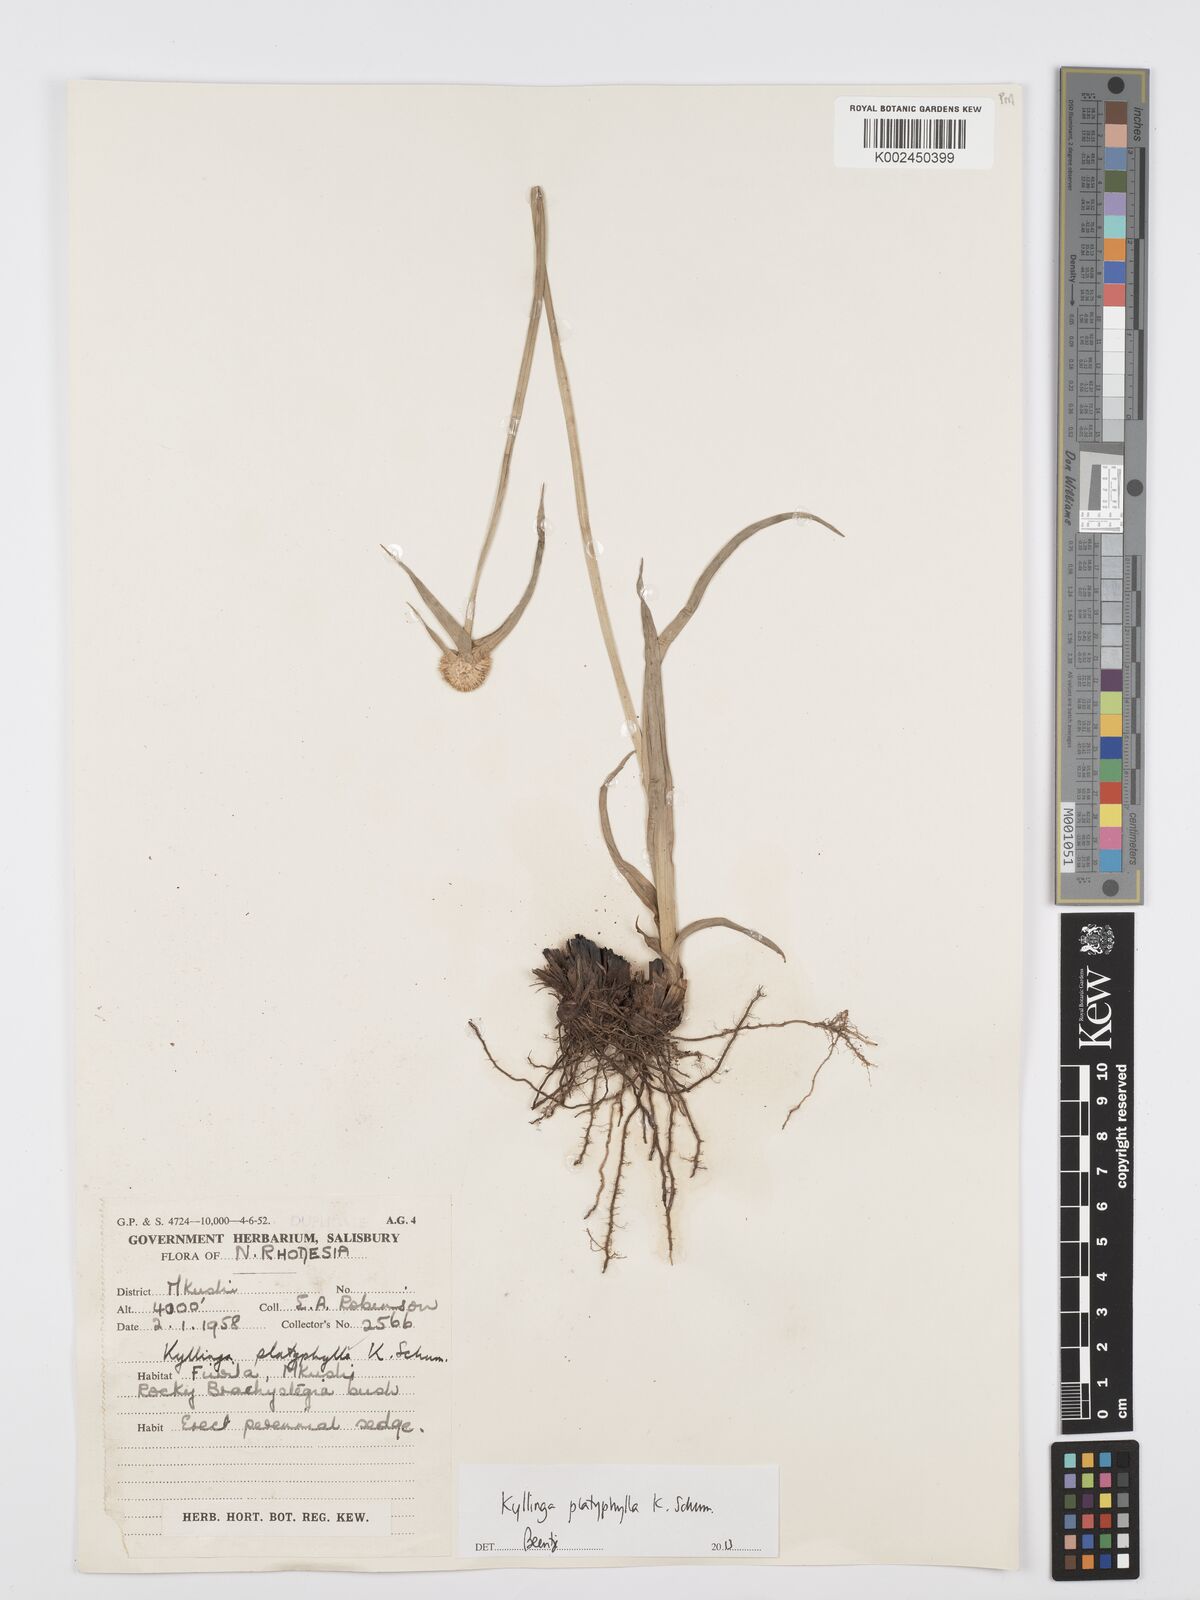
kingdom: Plantae
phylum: Tracheophyta
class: Liliopsida
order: Poales
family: Cyperaceae
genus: Cyperus
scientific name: Cyperus
